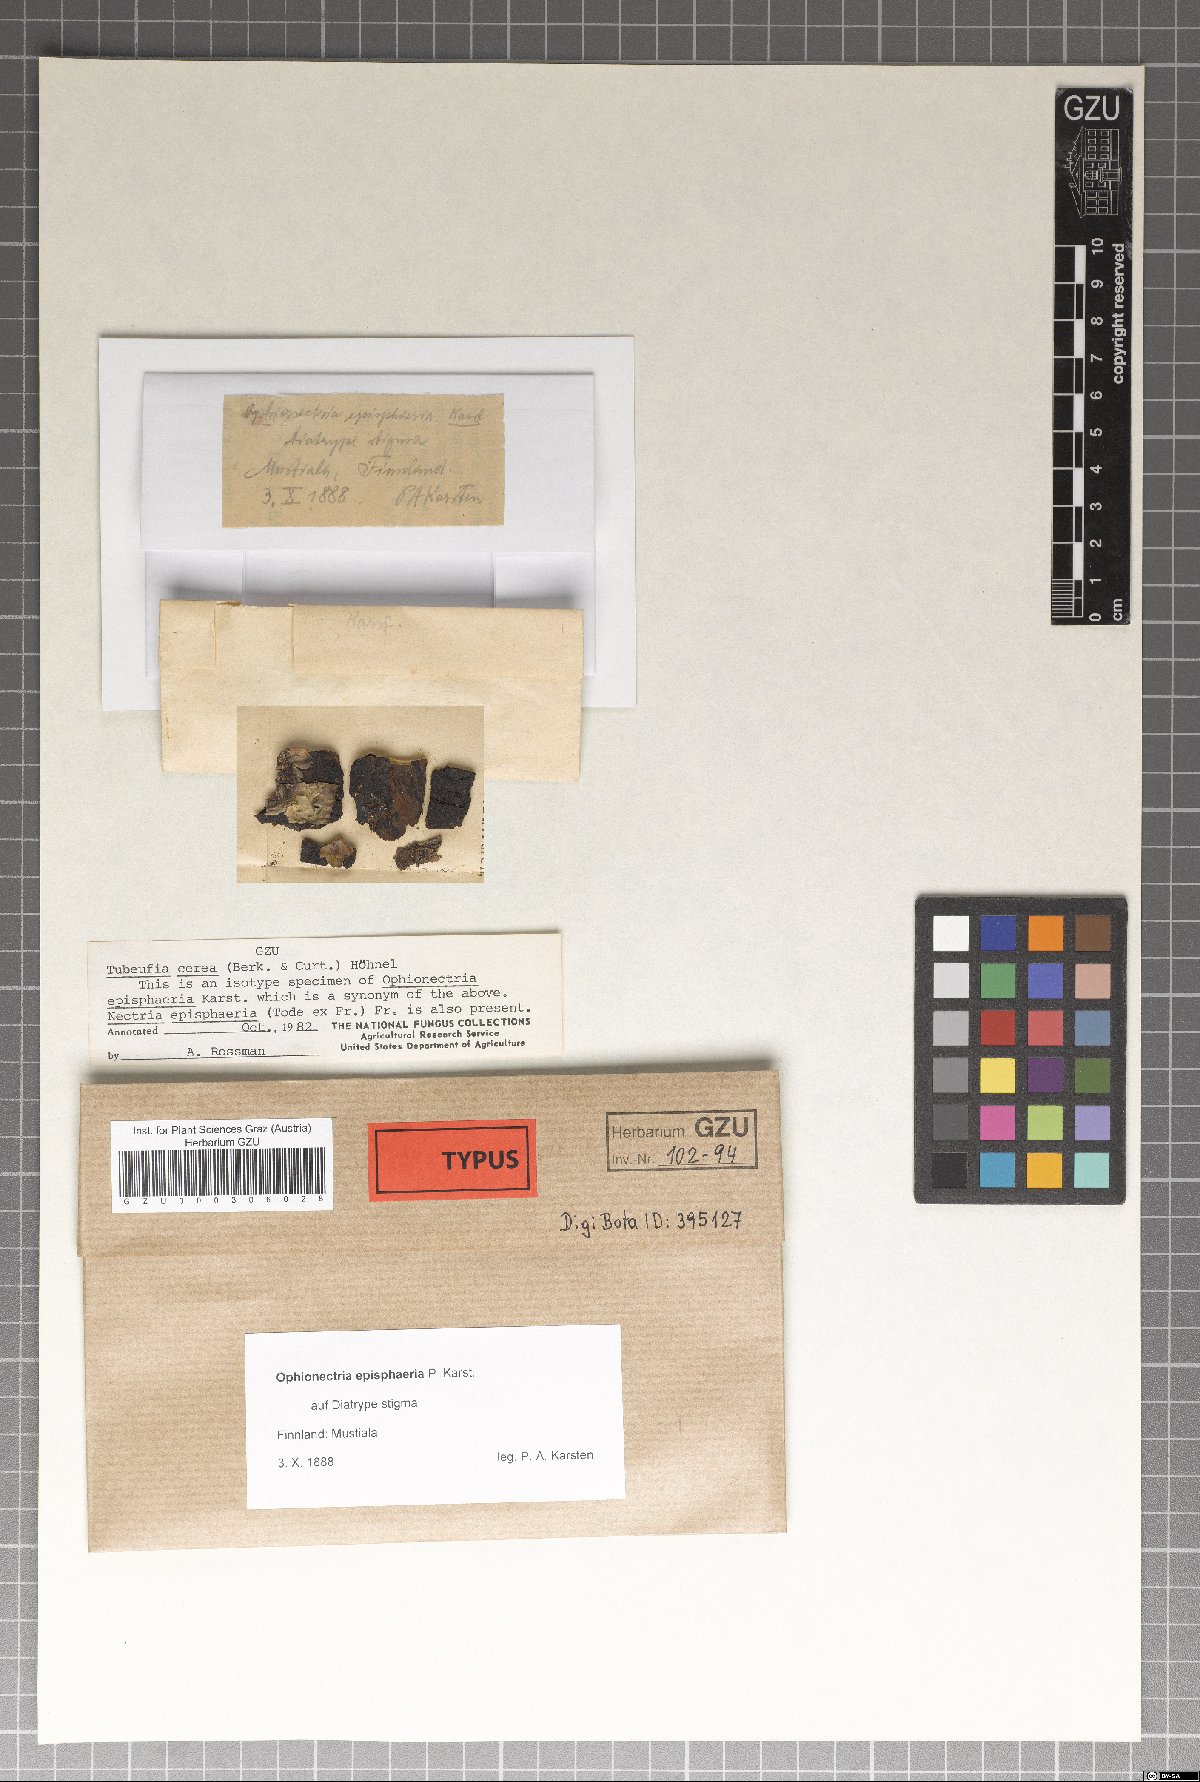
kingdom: Fungi
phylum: Ascomycota
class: Sordariomycetes
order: Hypocreales
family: Nectriaceae
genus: Ophionectria
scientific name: Ophionectria
